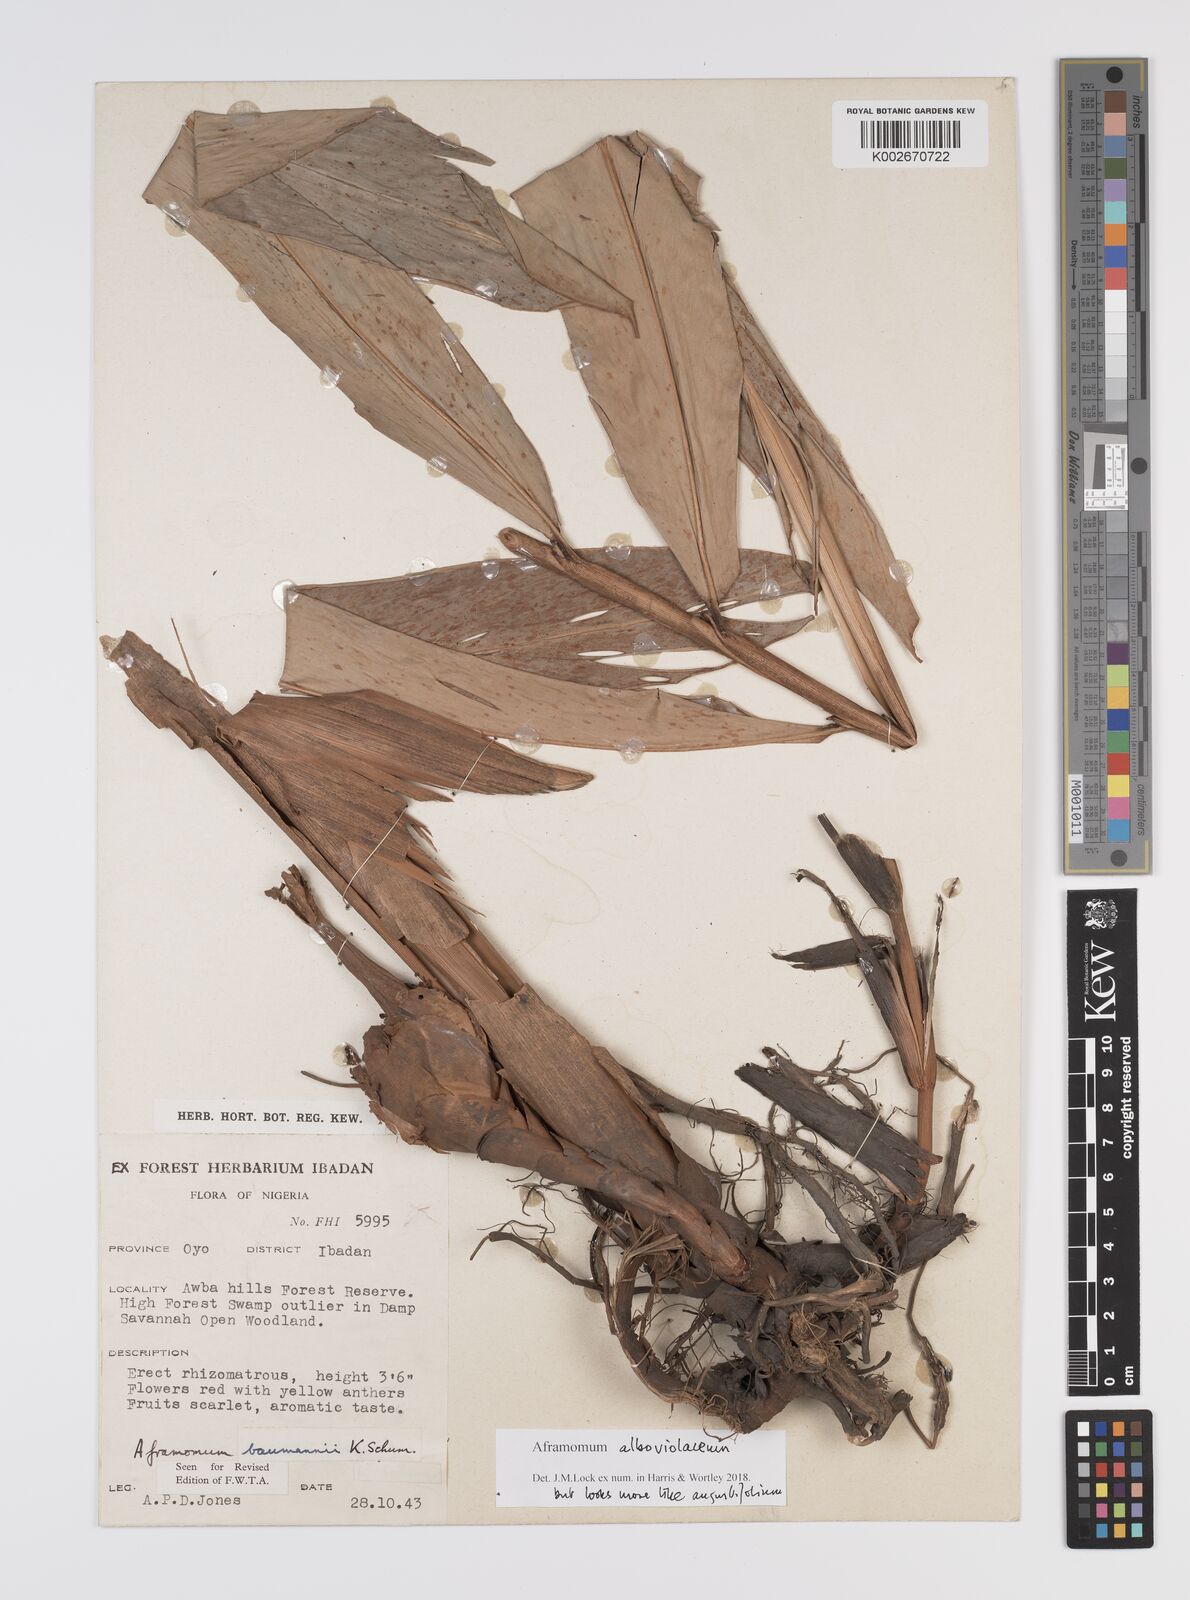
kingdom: Plantae
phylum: Tracheophyta
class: Liliopsida
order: Zingiberales
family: Zingiberaceae
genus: Aframomum
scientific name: Aframomum angustifolium
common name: Guinea grains
